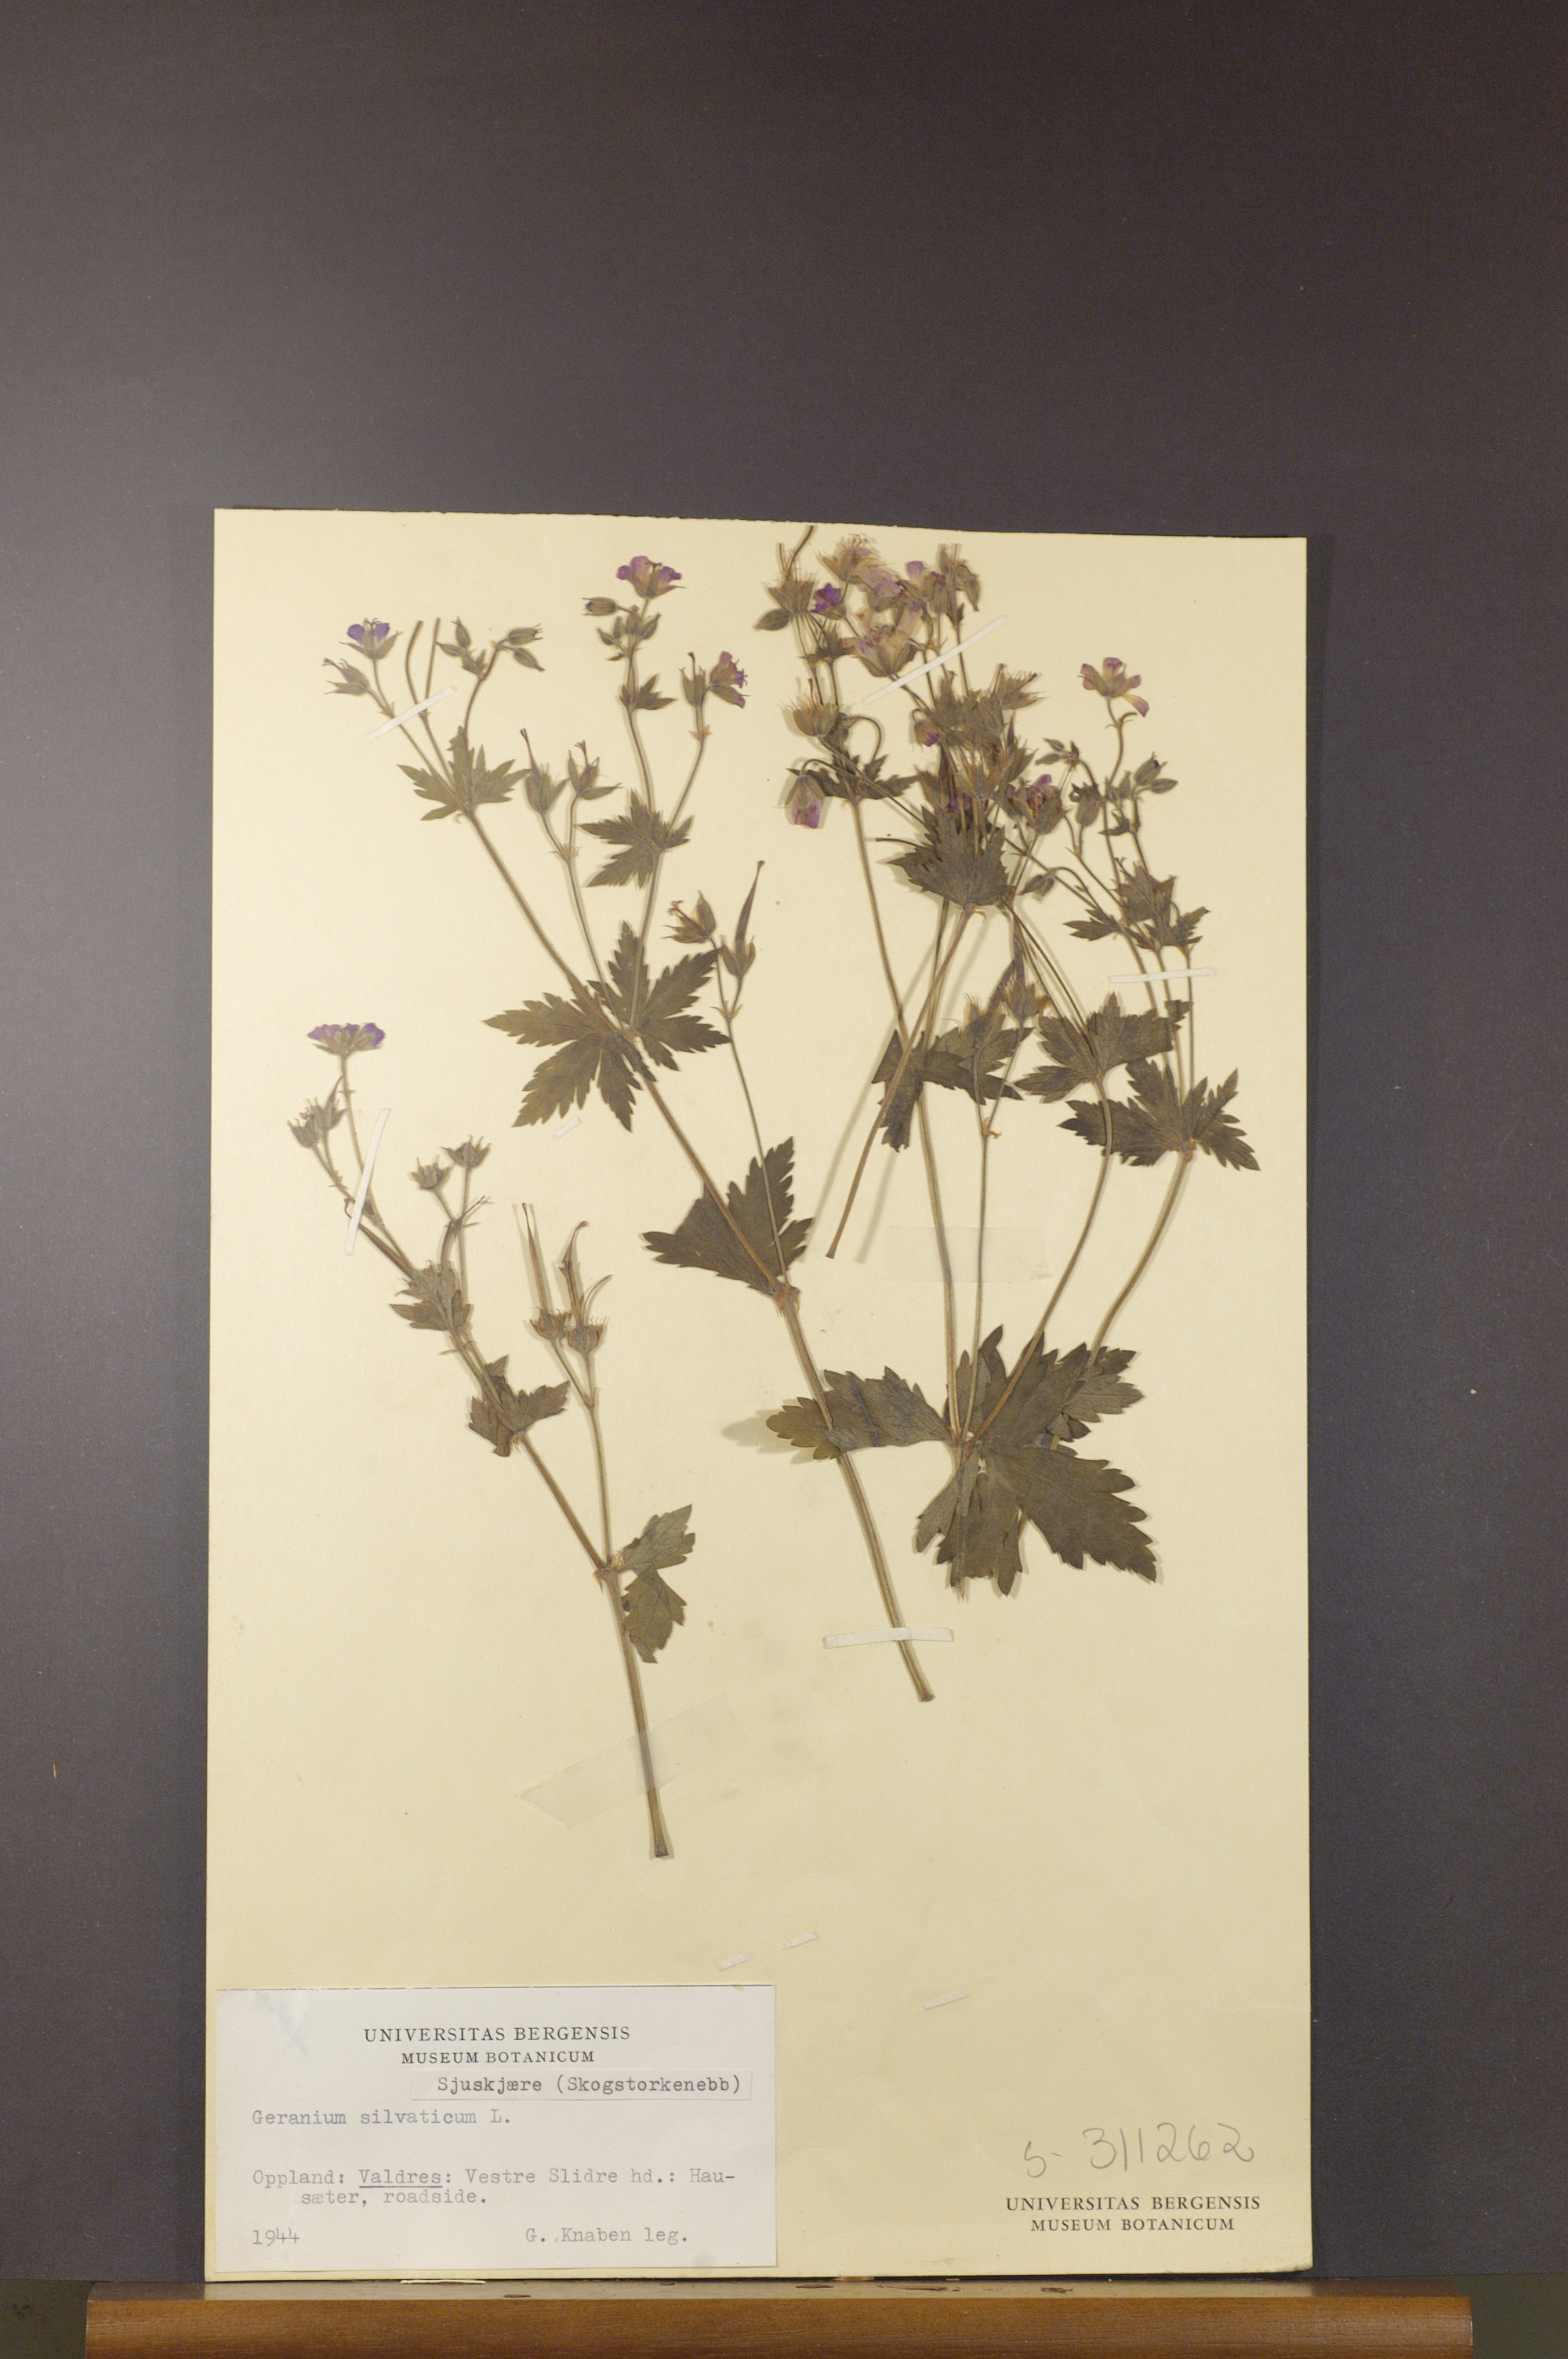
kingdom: Plantae
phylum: Tracheophyta
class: Magnoliopsida
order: Geraniales
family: Geraniaceae
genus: Geranium
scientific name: Geranium sylvaticum
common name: Wood crane's-bill
